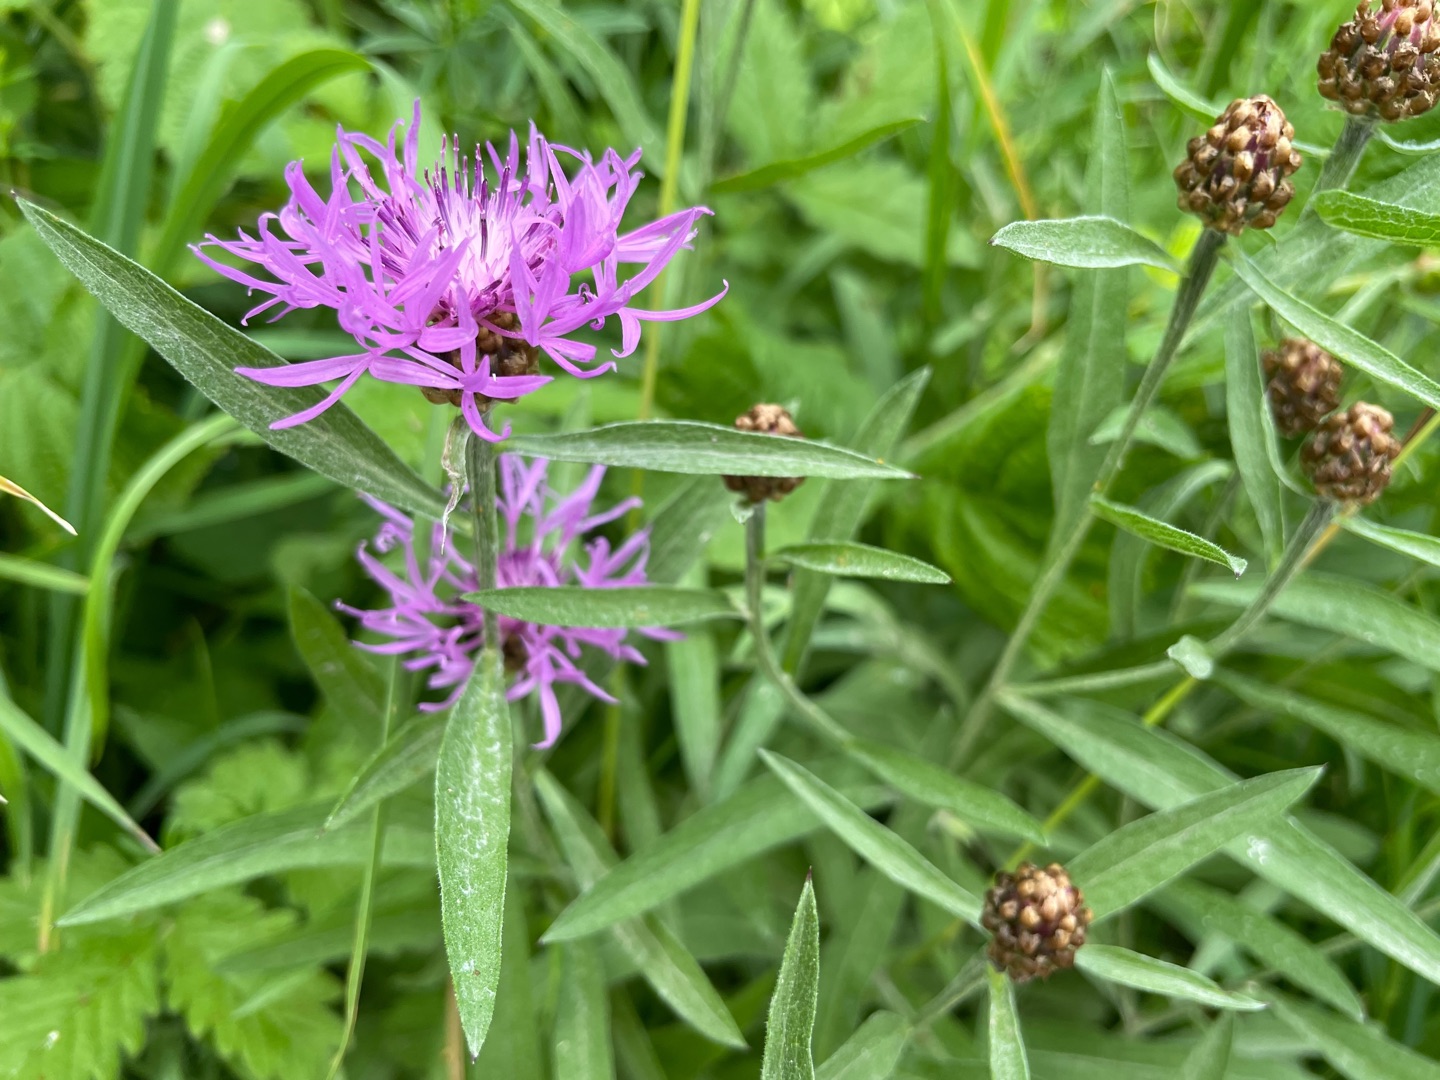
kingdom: Plantae
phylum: Tracheophyta
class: Magnoliopsida
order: Asterales
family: Asteraceae
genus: Centaurea
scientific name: Centaurea jacea
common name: Almindelig knopurt
